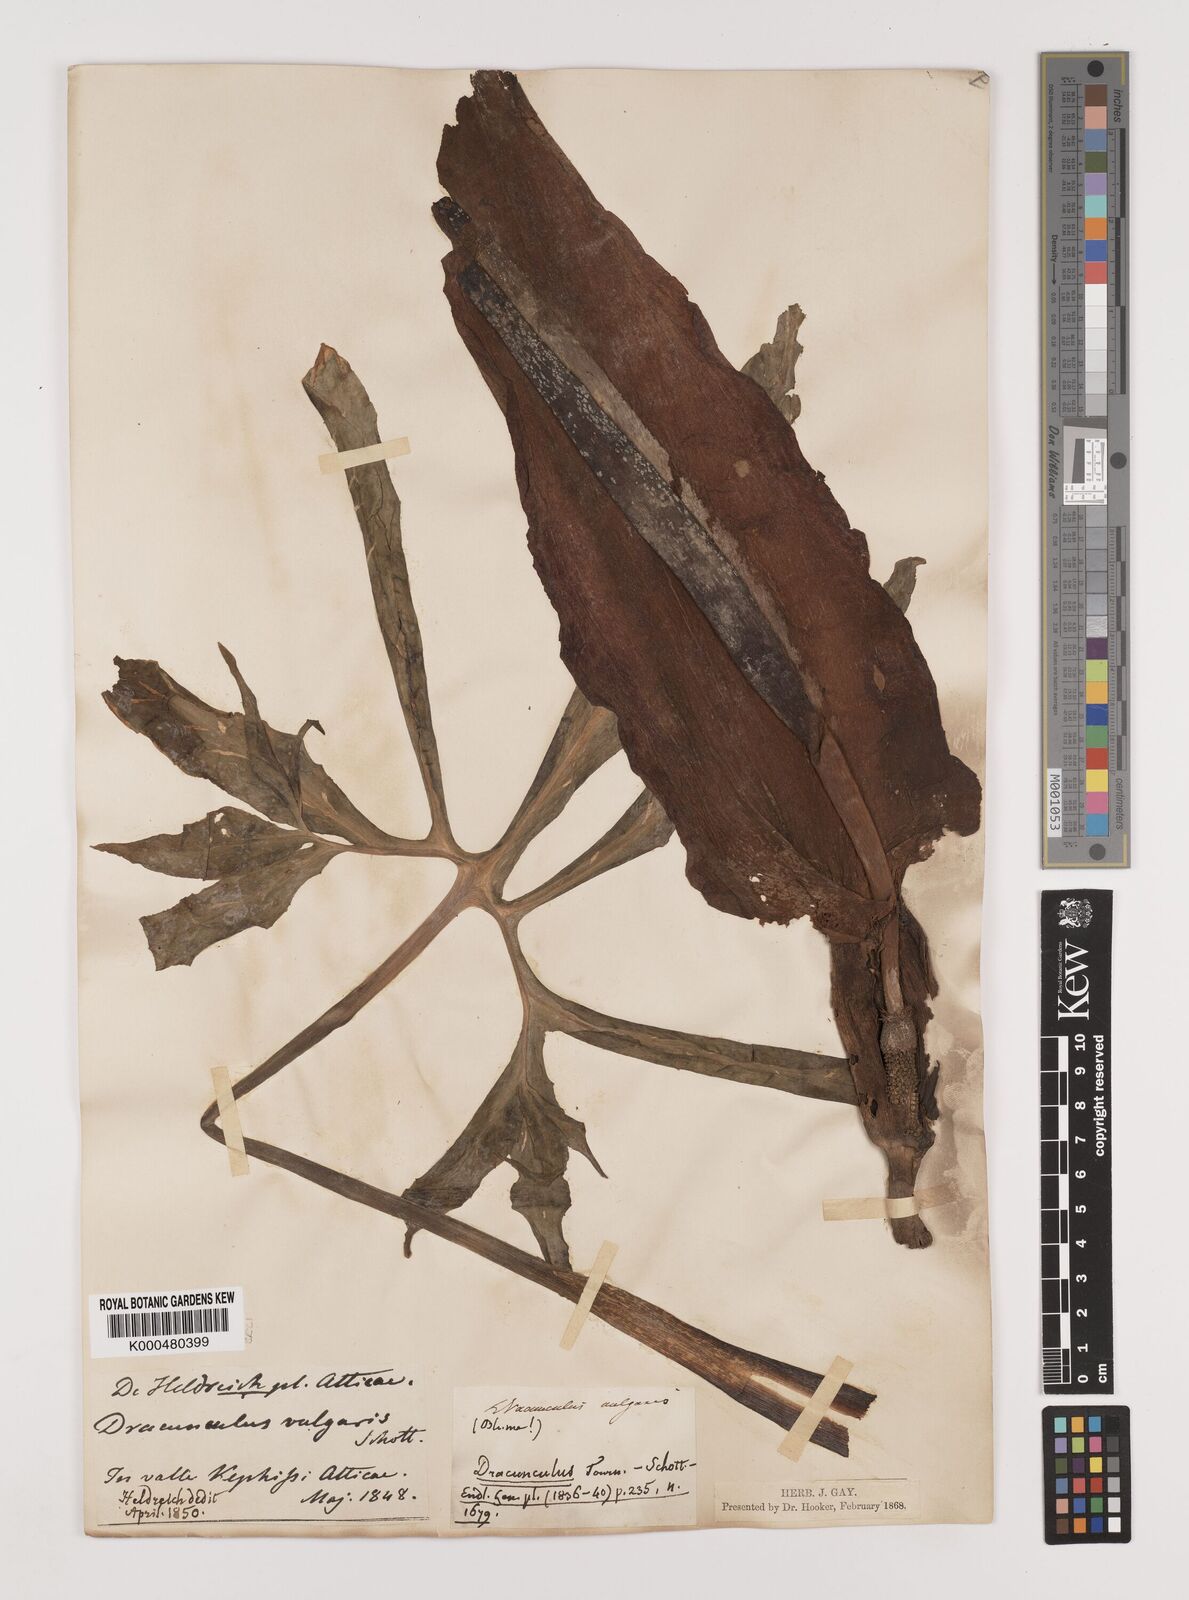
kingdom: Plantae
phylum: Tracheophyta
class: Liliopsida
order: Alismatales
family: Araceae
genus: Dracunculus
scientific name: Dracunculus vulgaris
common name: Dragon arum
